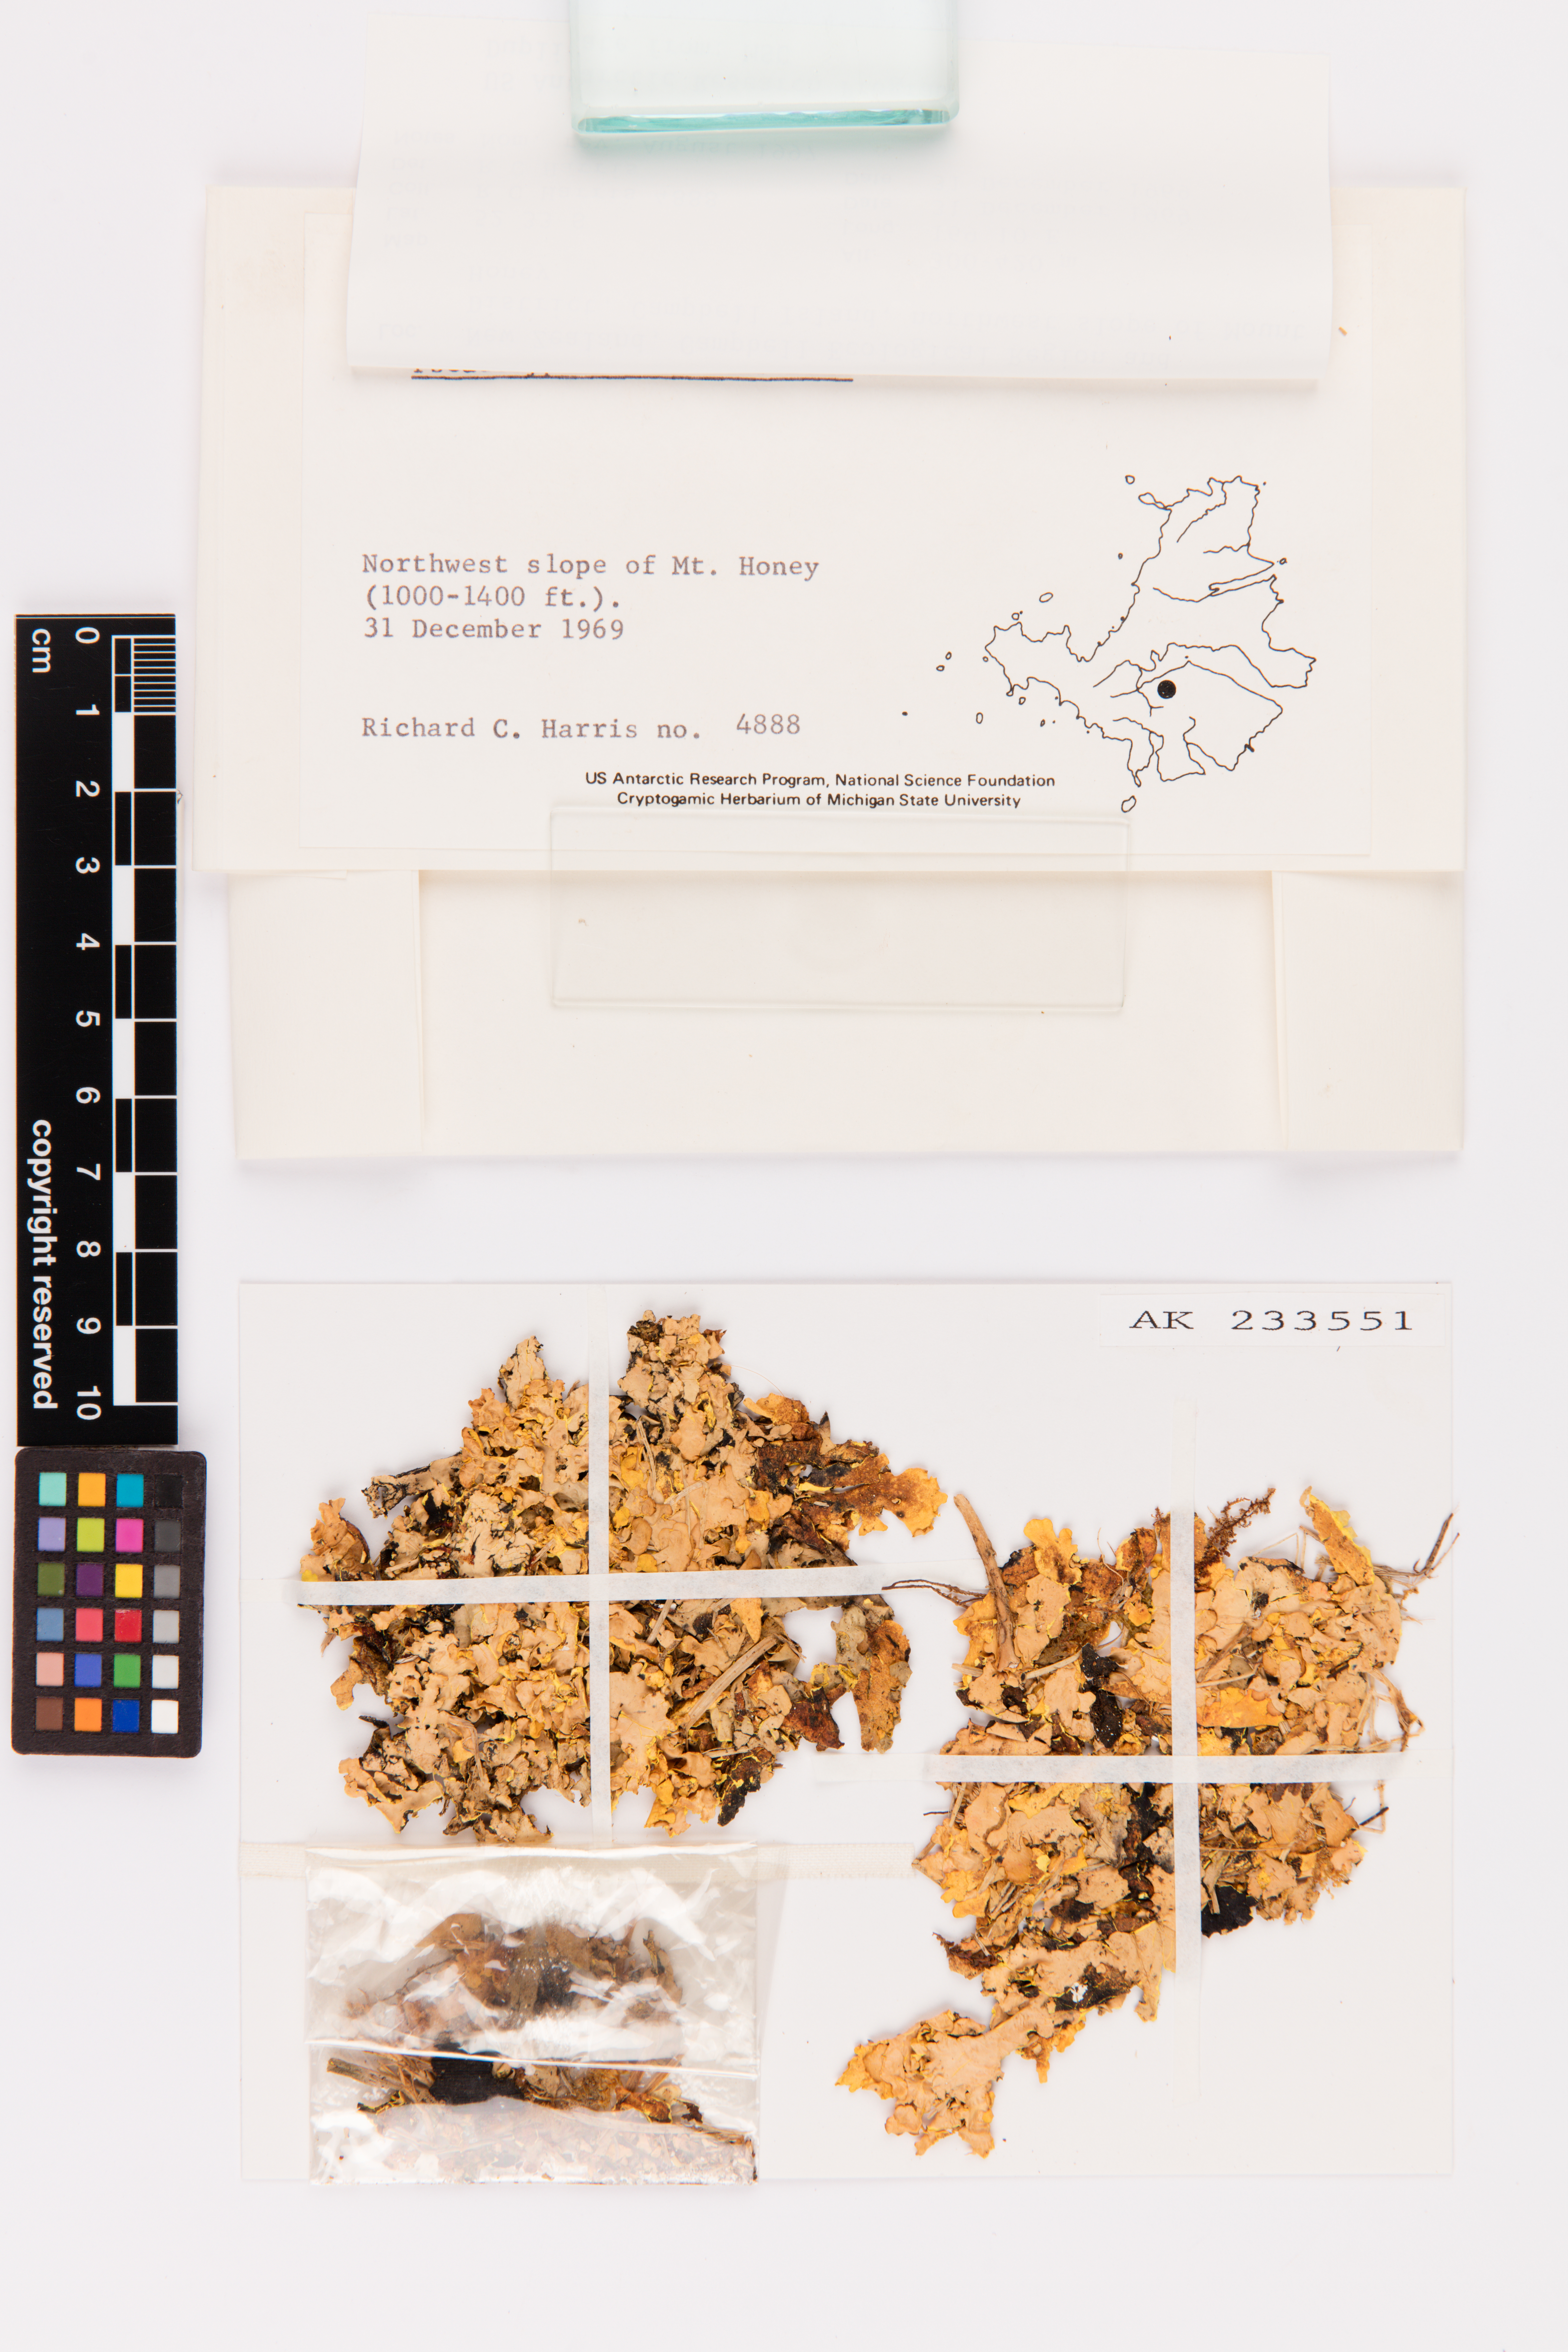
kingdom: Fungi
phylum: Ascomycota
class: Lecanoromycetes
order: Peltigerales
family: Lobariaceae
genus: Podostictina
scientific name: Podostictina degelii
